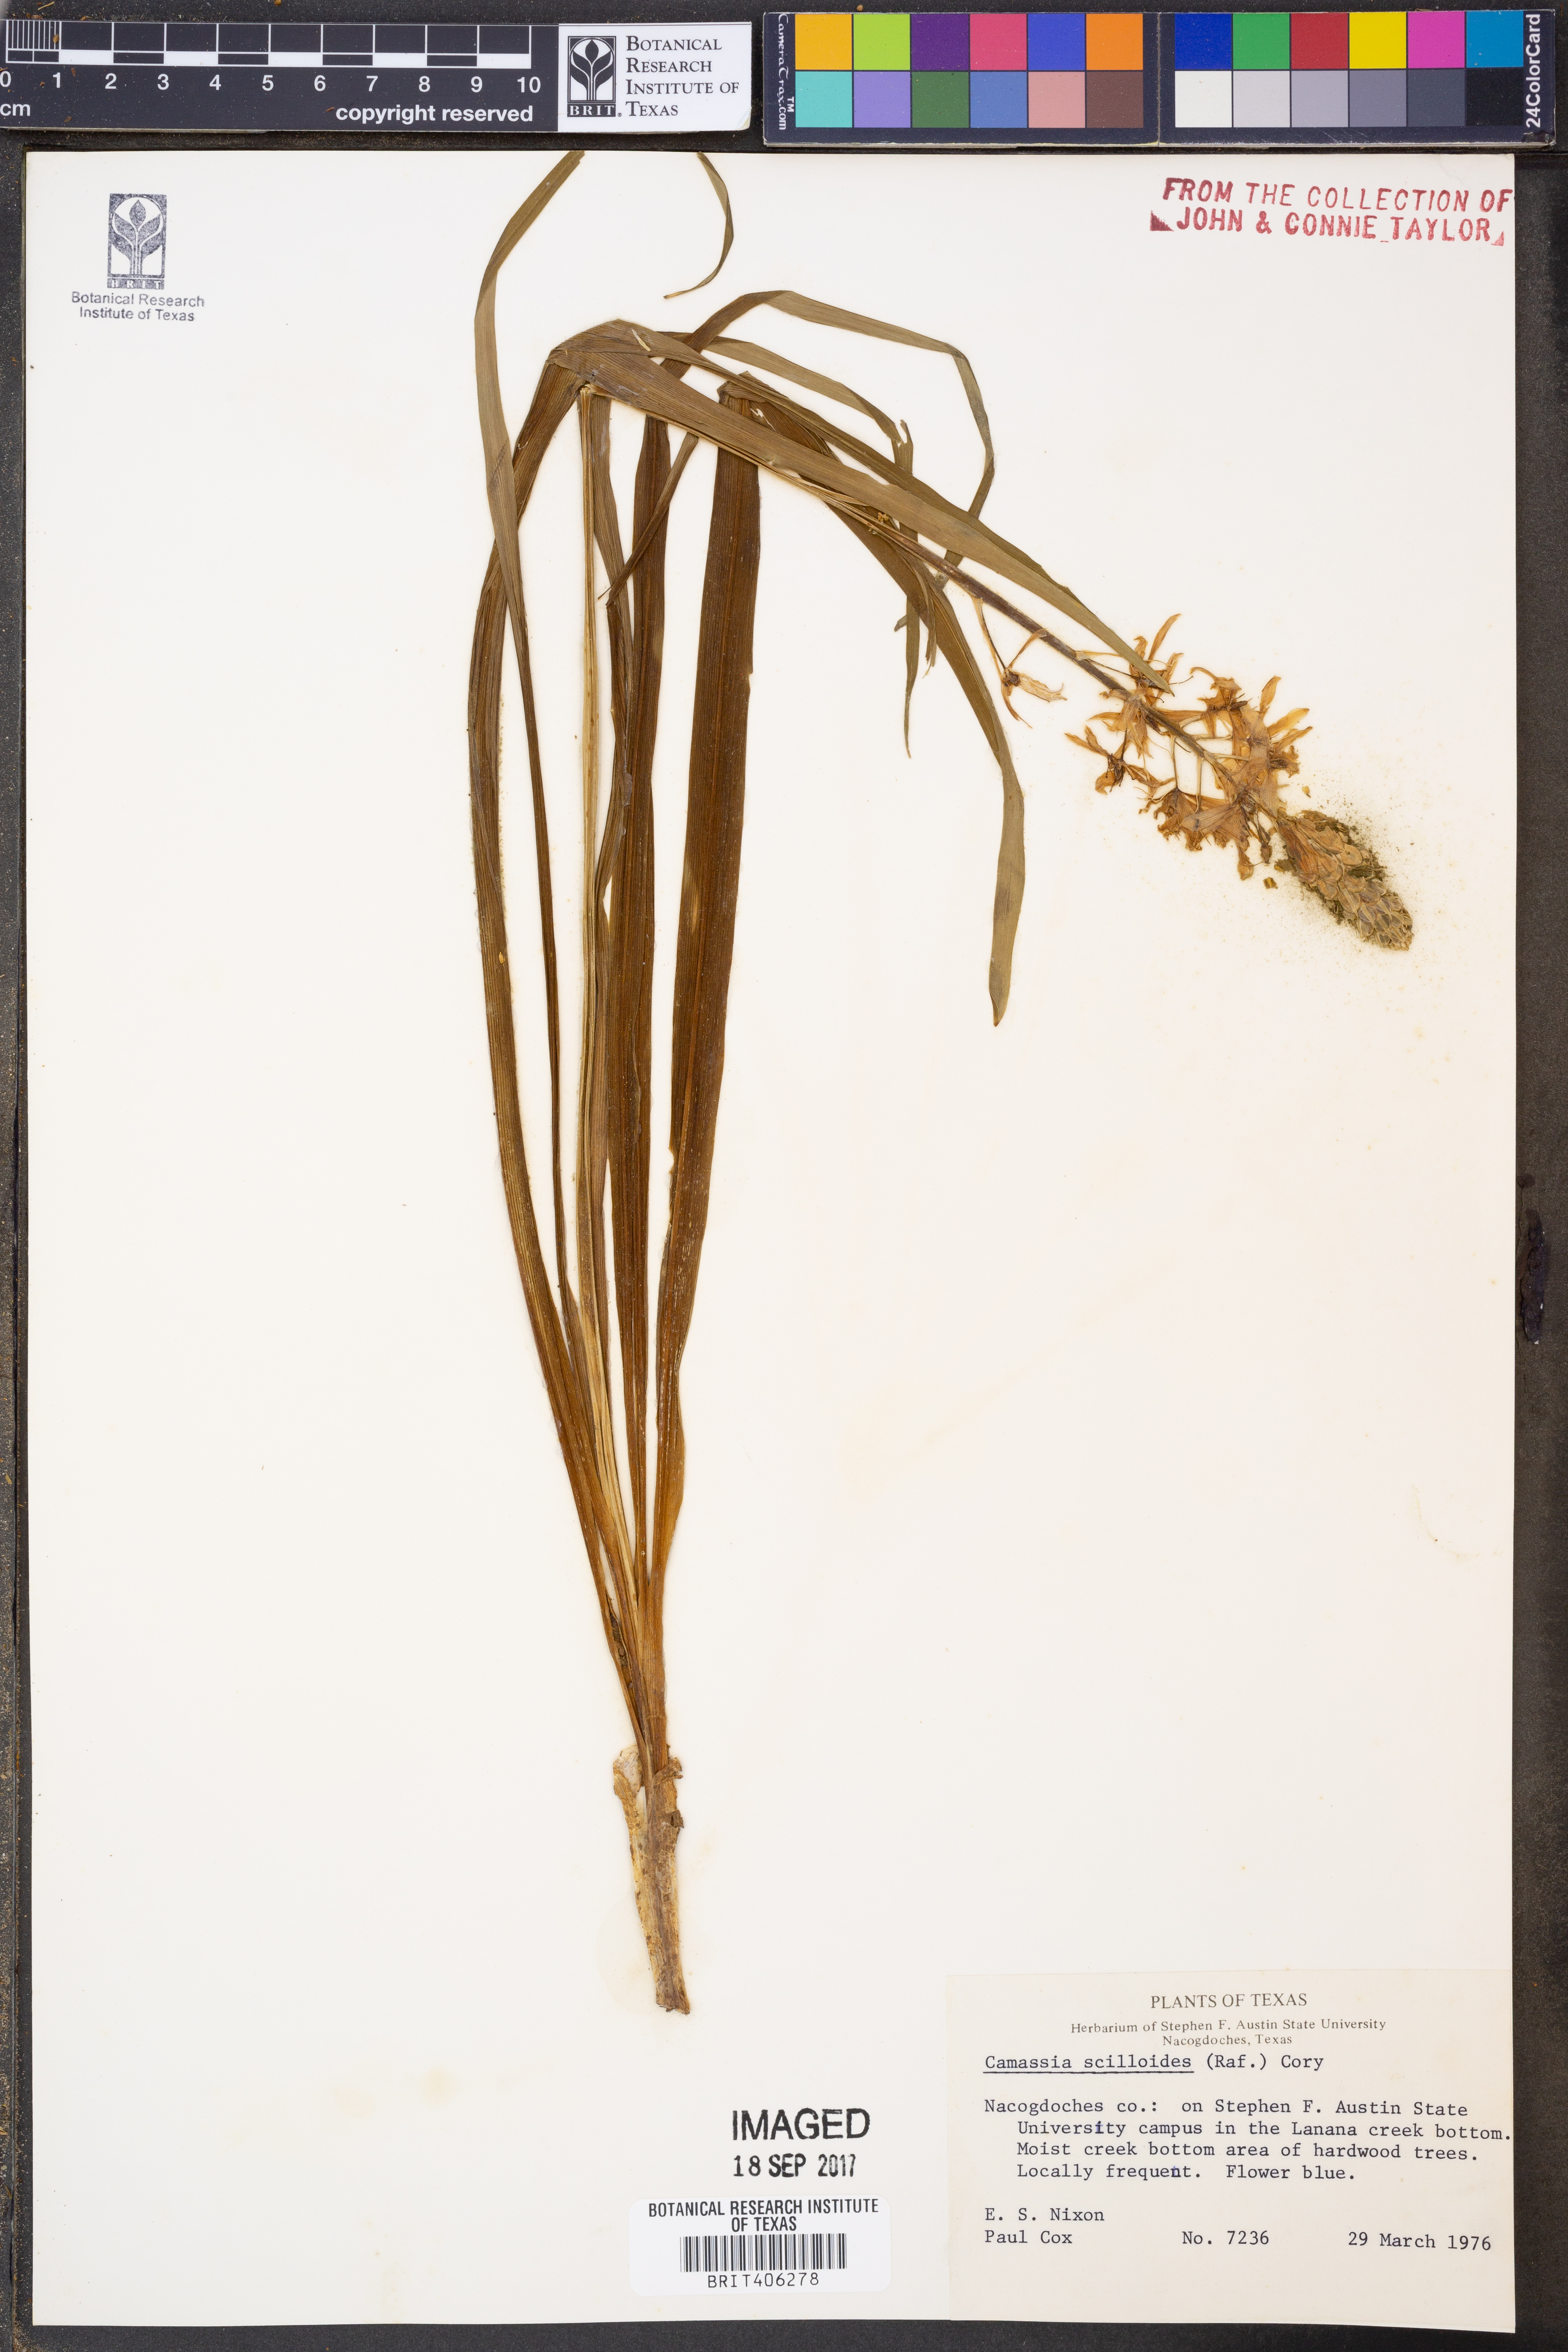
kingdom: Plantae
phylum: Tracheophyta
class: Liliopsida
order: Asparagales
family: Asparagaceae
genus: Camassia
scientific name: Camassia scilloides
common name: Wild hyacinth
